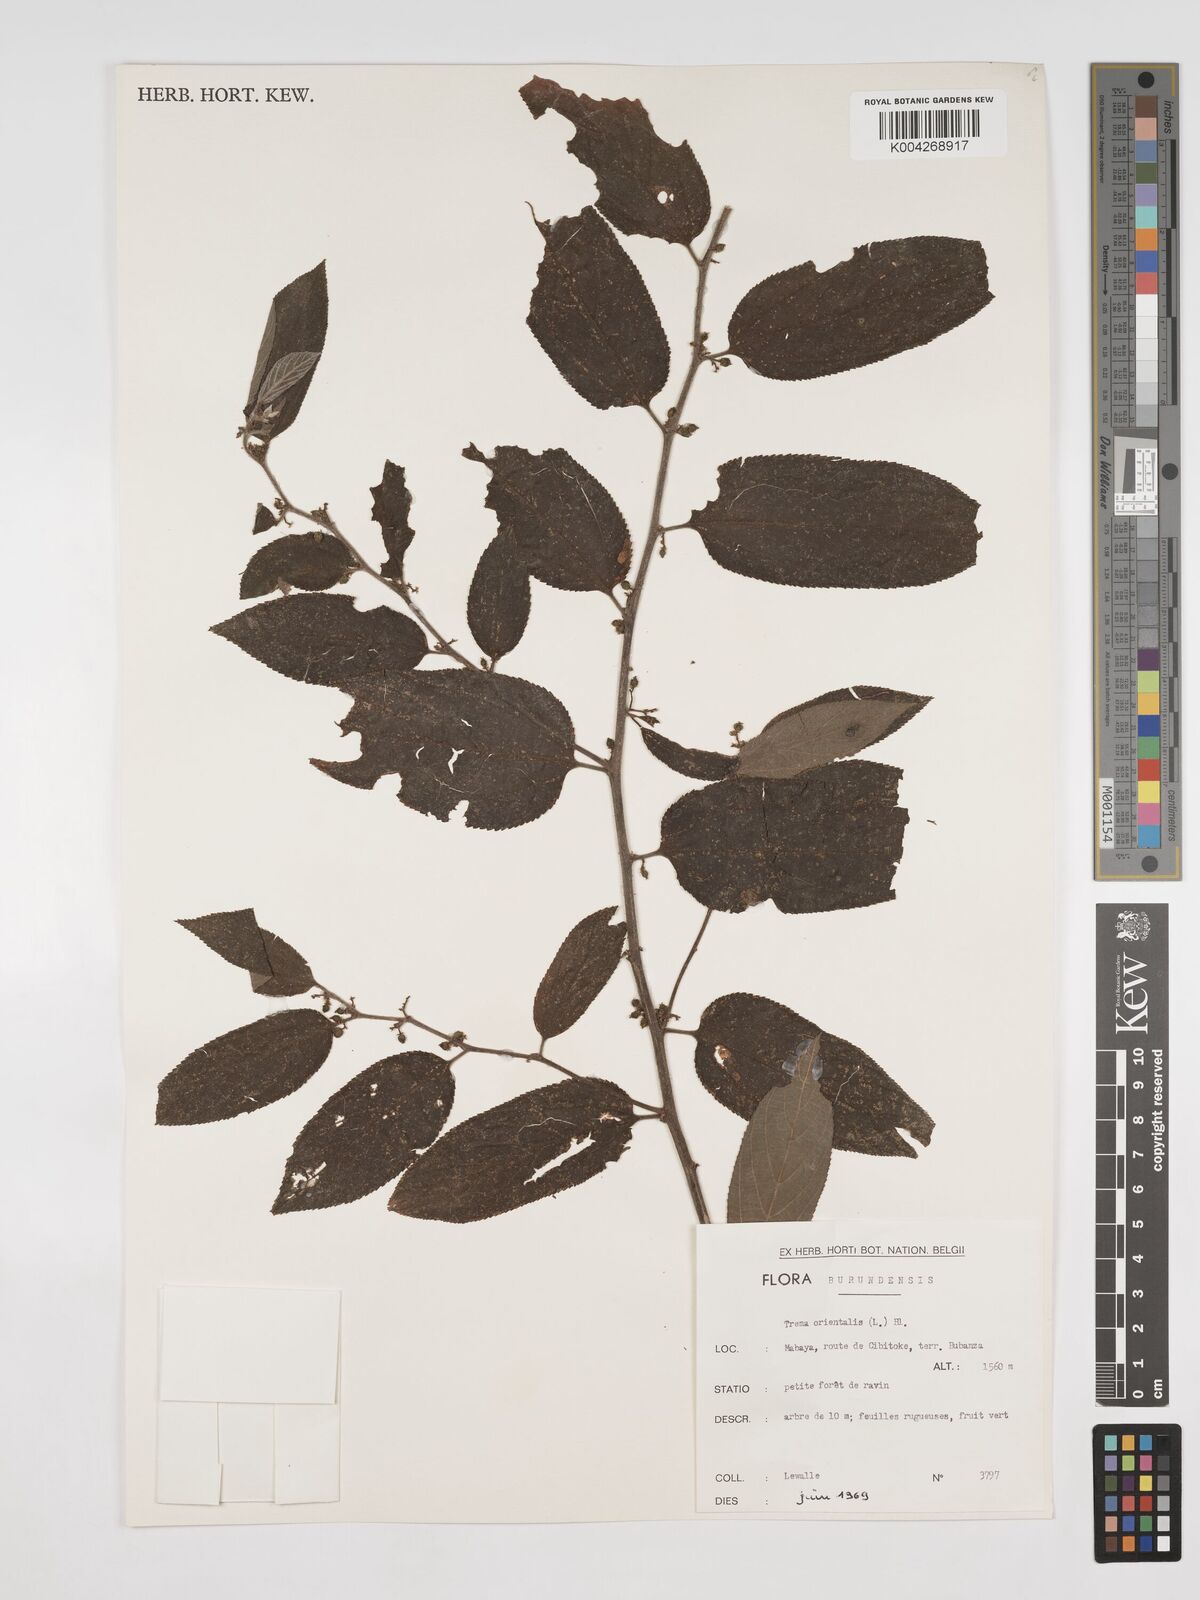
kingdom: Plantae
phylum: Tracheophyta
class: Magnoliopsida
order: Rosales
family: Cannabaceae
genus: Trema
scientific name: Trema orientale
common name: Indian charcoal tree
